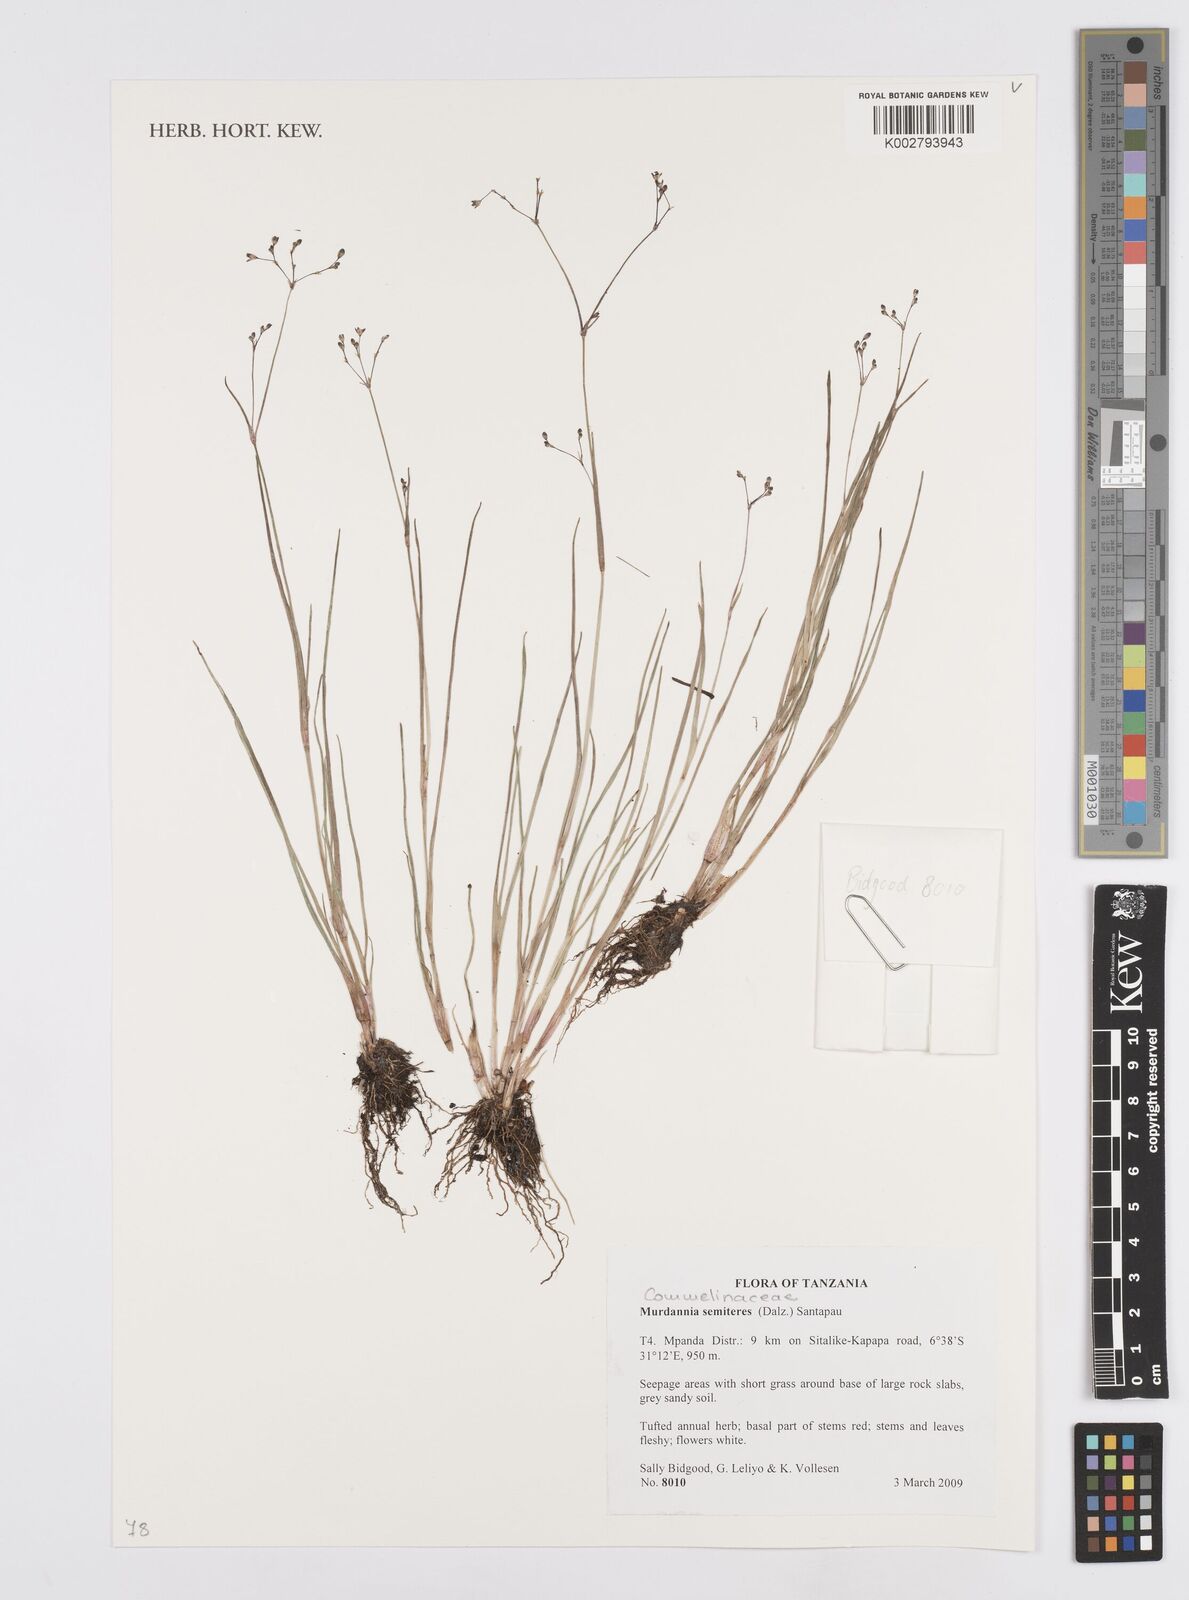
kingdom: Plantae
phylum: Tracheophyta
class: Liliopsida
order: Commelinales
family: Commelinaceae
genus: Murdannia
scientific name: Murdannia semiteres
